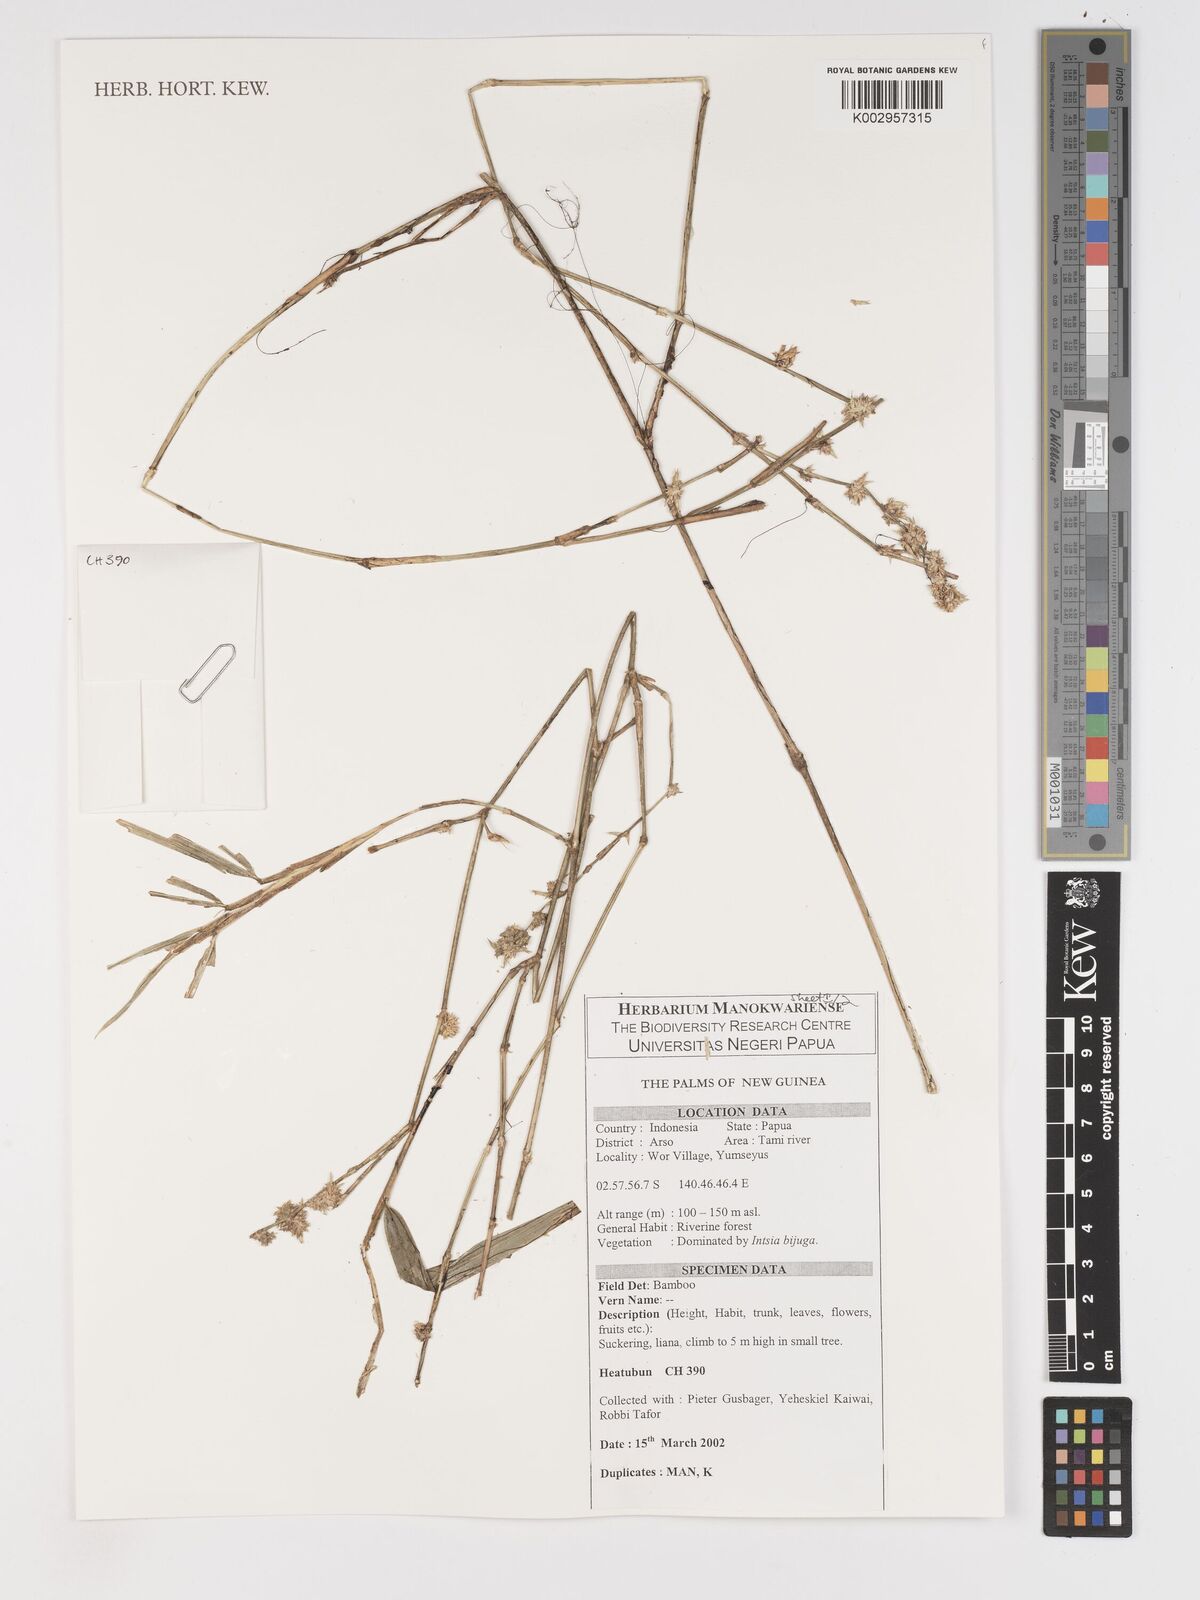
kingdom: Plantae
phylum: Tracheophyta
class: Liliopsida
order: Poales
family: Poaceae
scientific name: Poaceae
